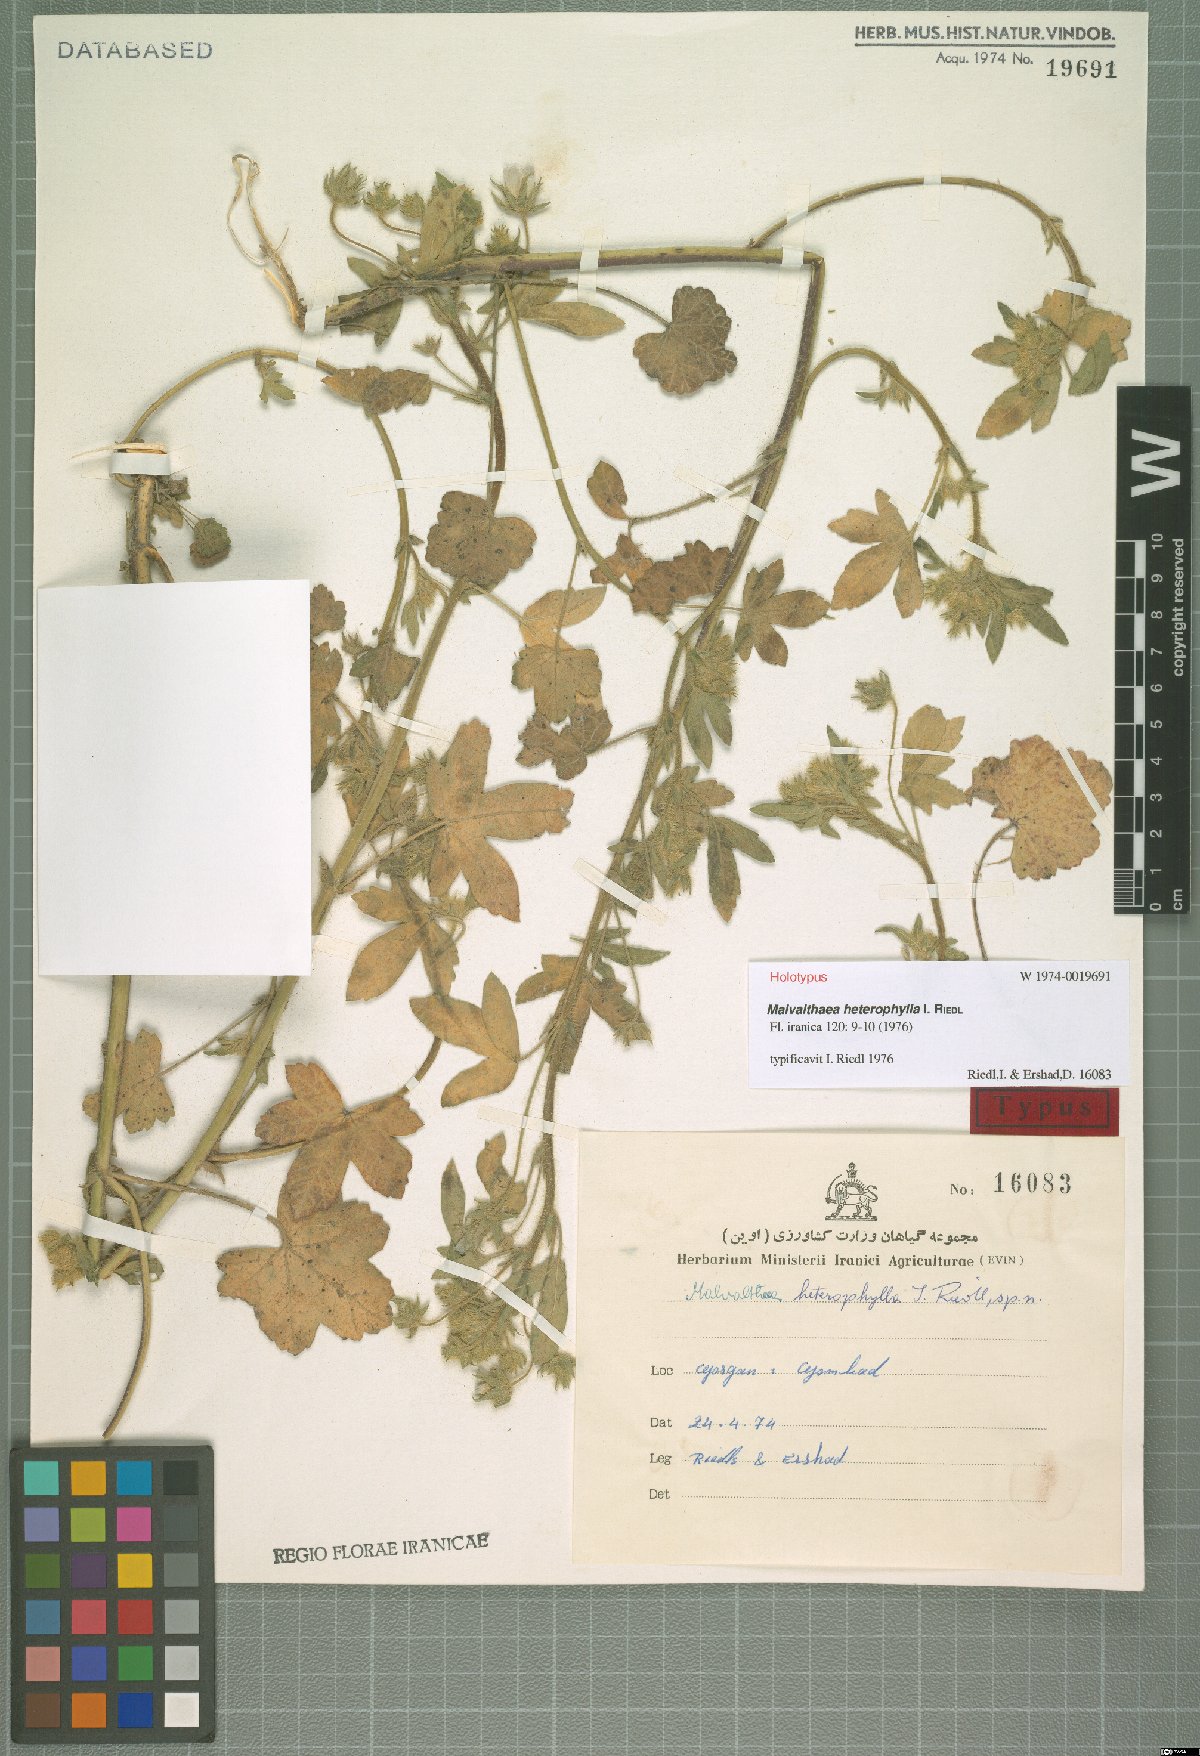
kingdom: Plantae
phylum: Tracheophyta
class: Magnoliopsida
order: Malvales
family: Malvaceae
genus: Malvalthaea
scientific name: Malvalthaea heterophylla
